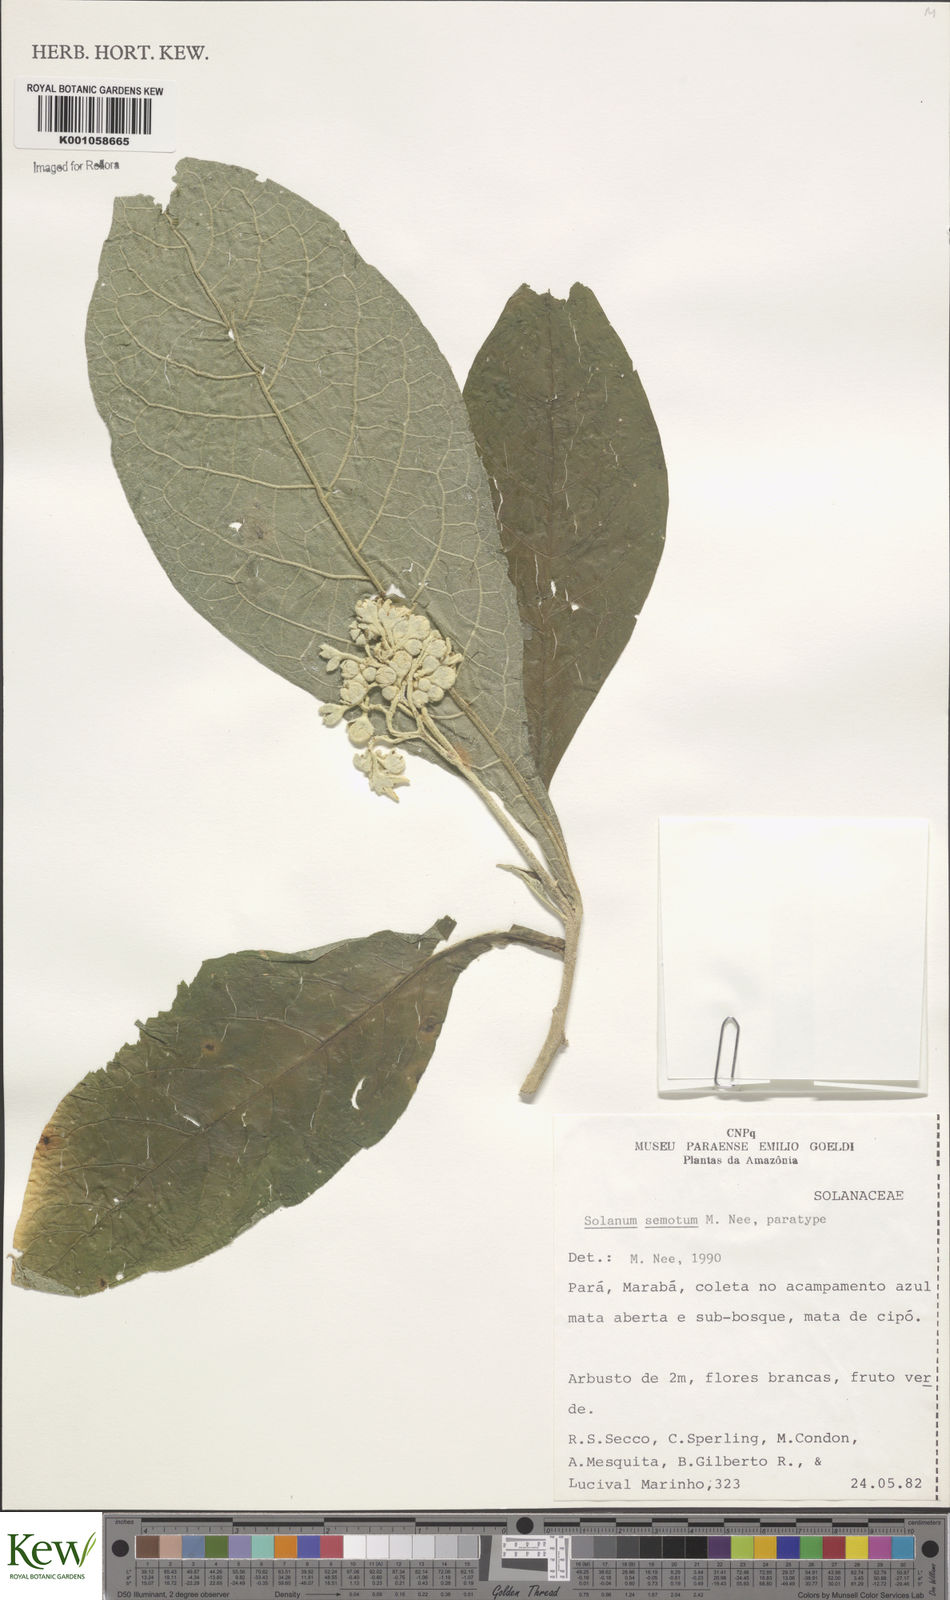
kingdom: Plantae
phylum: Tracheophyta
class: Magnoliopsida
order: Solanales
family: Solanaceae
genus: Solanum
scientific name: Solanum semotum
